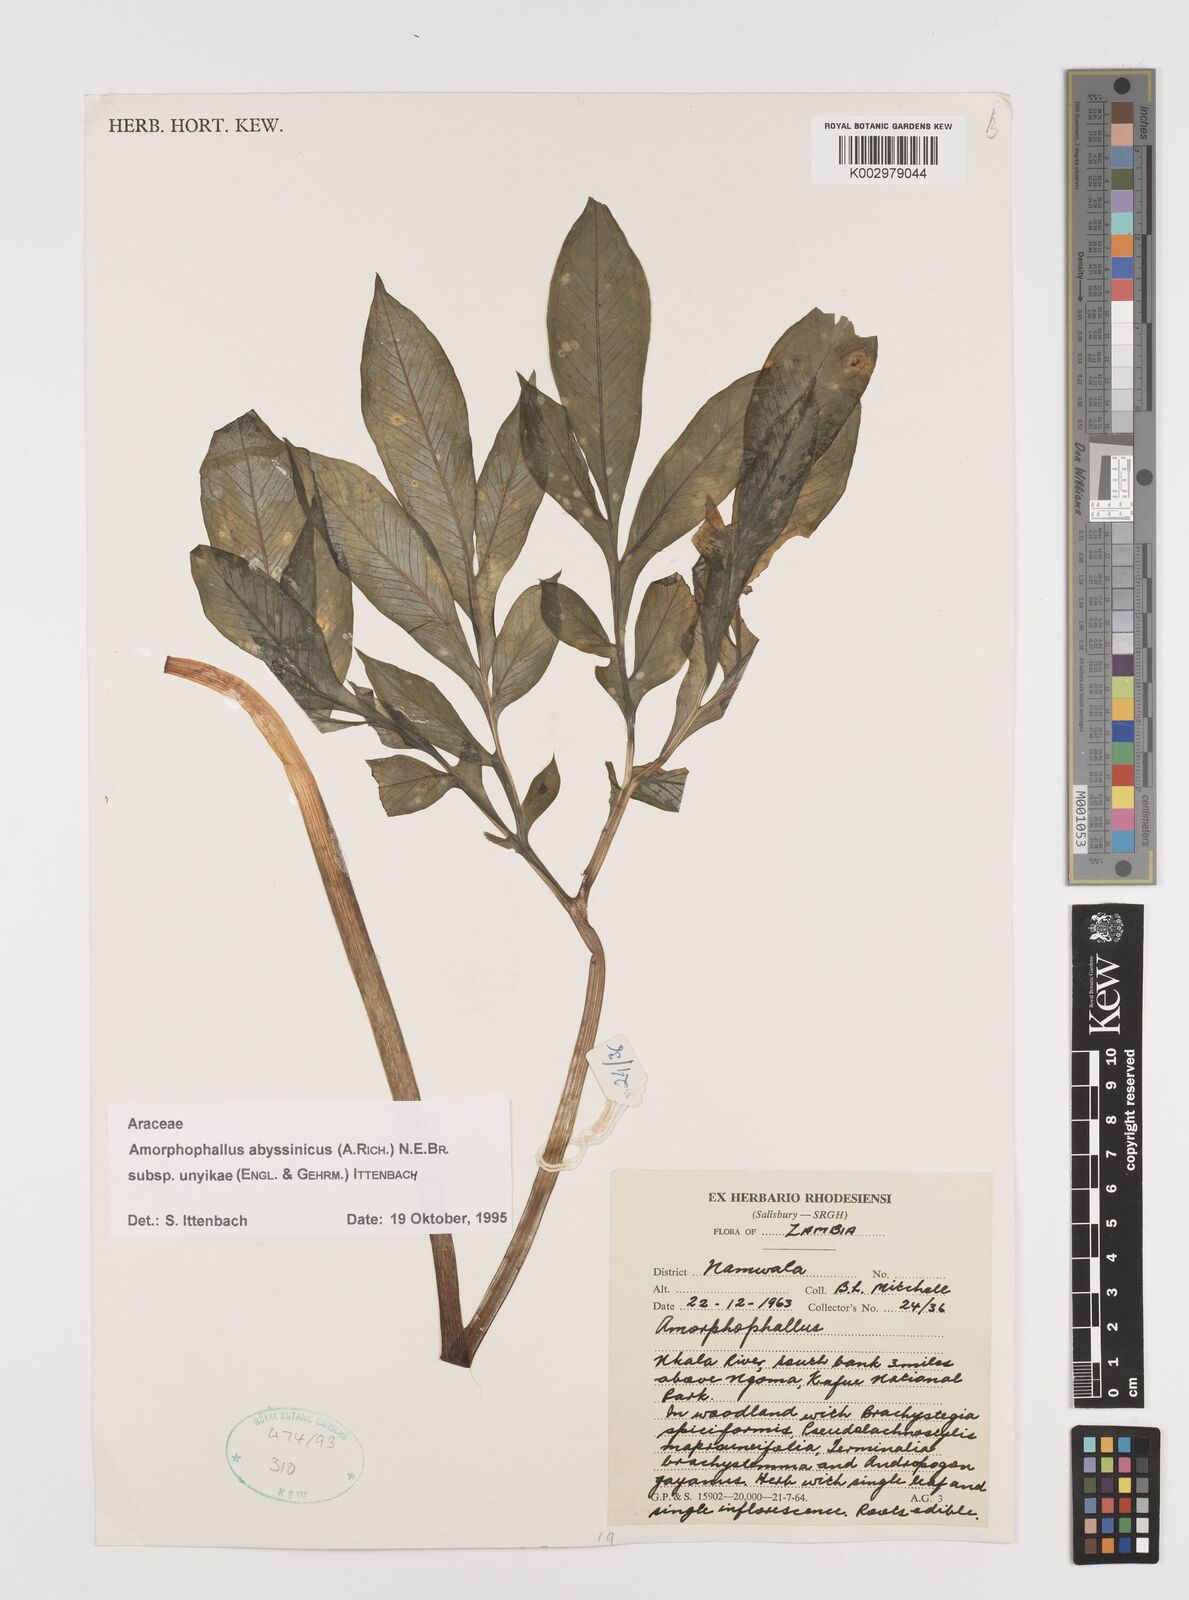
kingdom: Plantae
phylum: Tracheophyta
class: Liliopsida
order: Alismatales
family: Araceae
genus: Amorphophallus
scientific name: Amorphophallus abyssinicus
